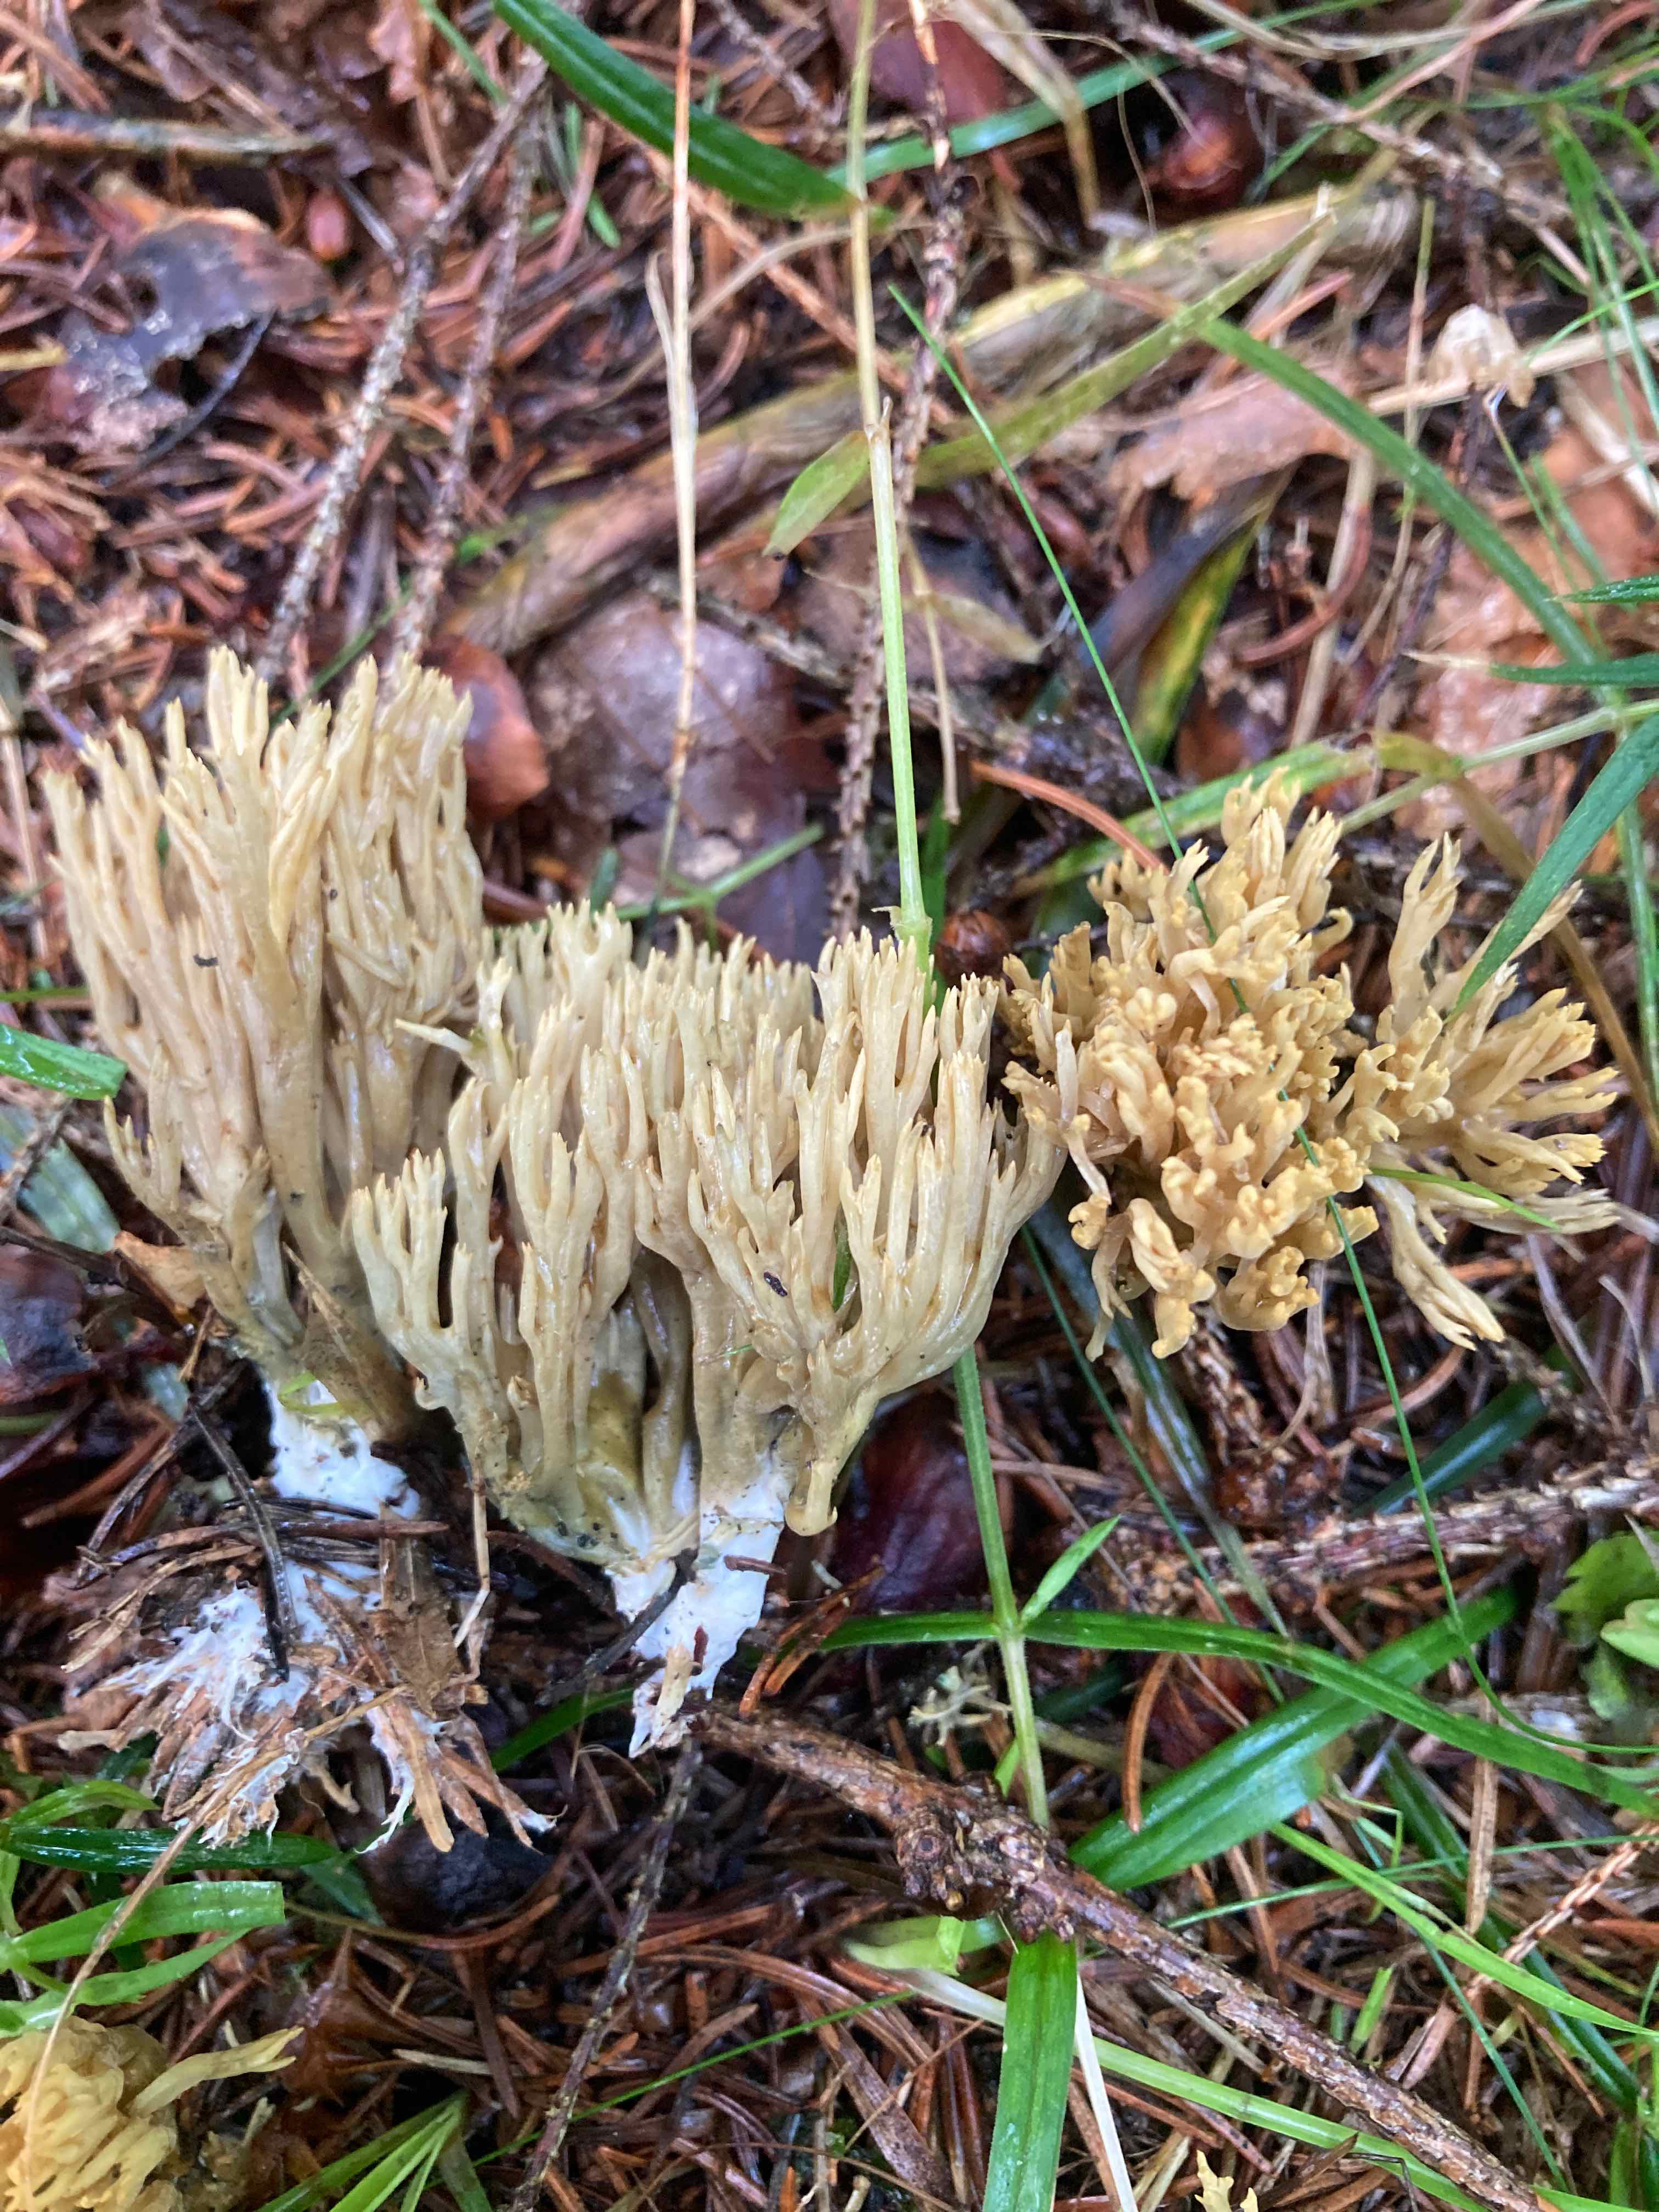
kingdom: Fungi
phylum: Basidiomycota
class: Agaricomycetes
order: Gomphales
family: Gomphaceae
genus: Phaeoclavulina
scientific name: Phaeoclavulina abietina
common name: gulgrøn koralsvamp
